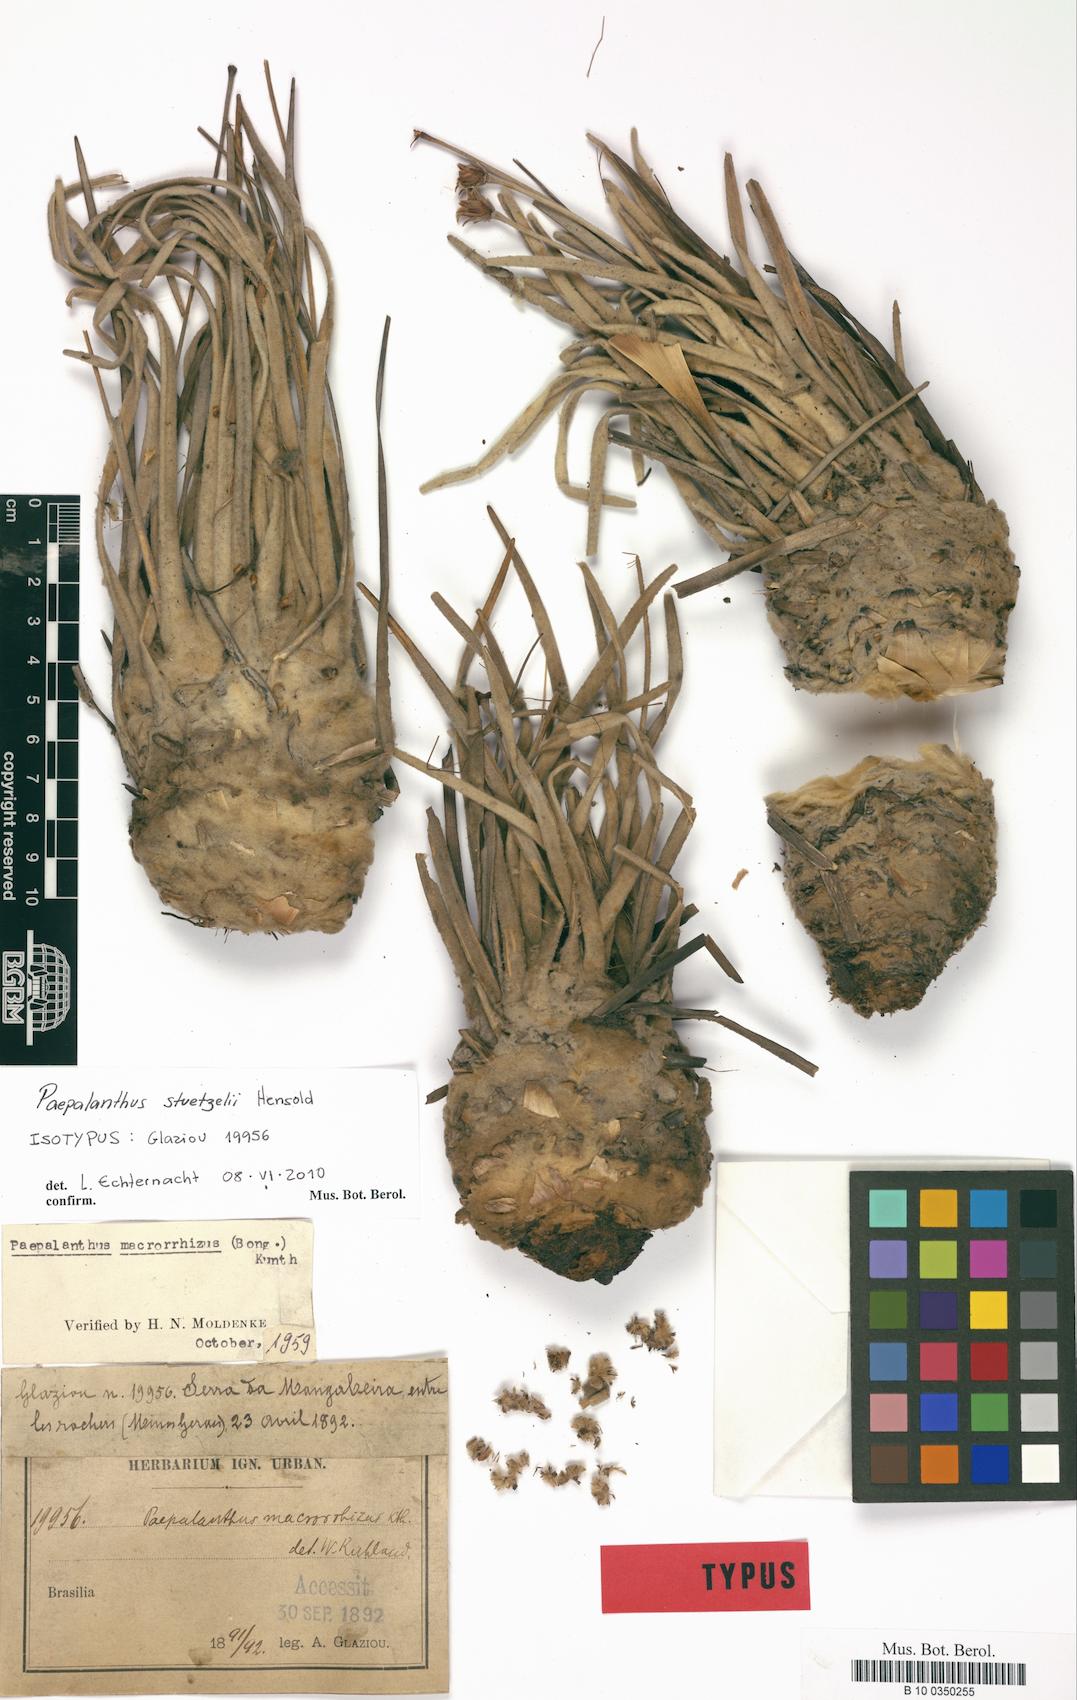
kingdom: Plantae
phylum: Tracheophyta
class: Liliopsida
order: Poales
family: Eriocaulaceae
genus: Paepalanthus
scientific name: Paepalanthus stuetzelii
